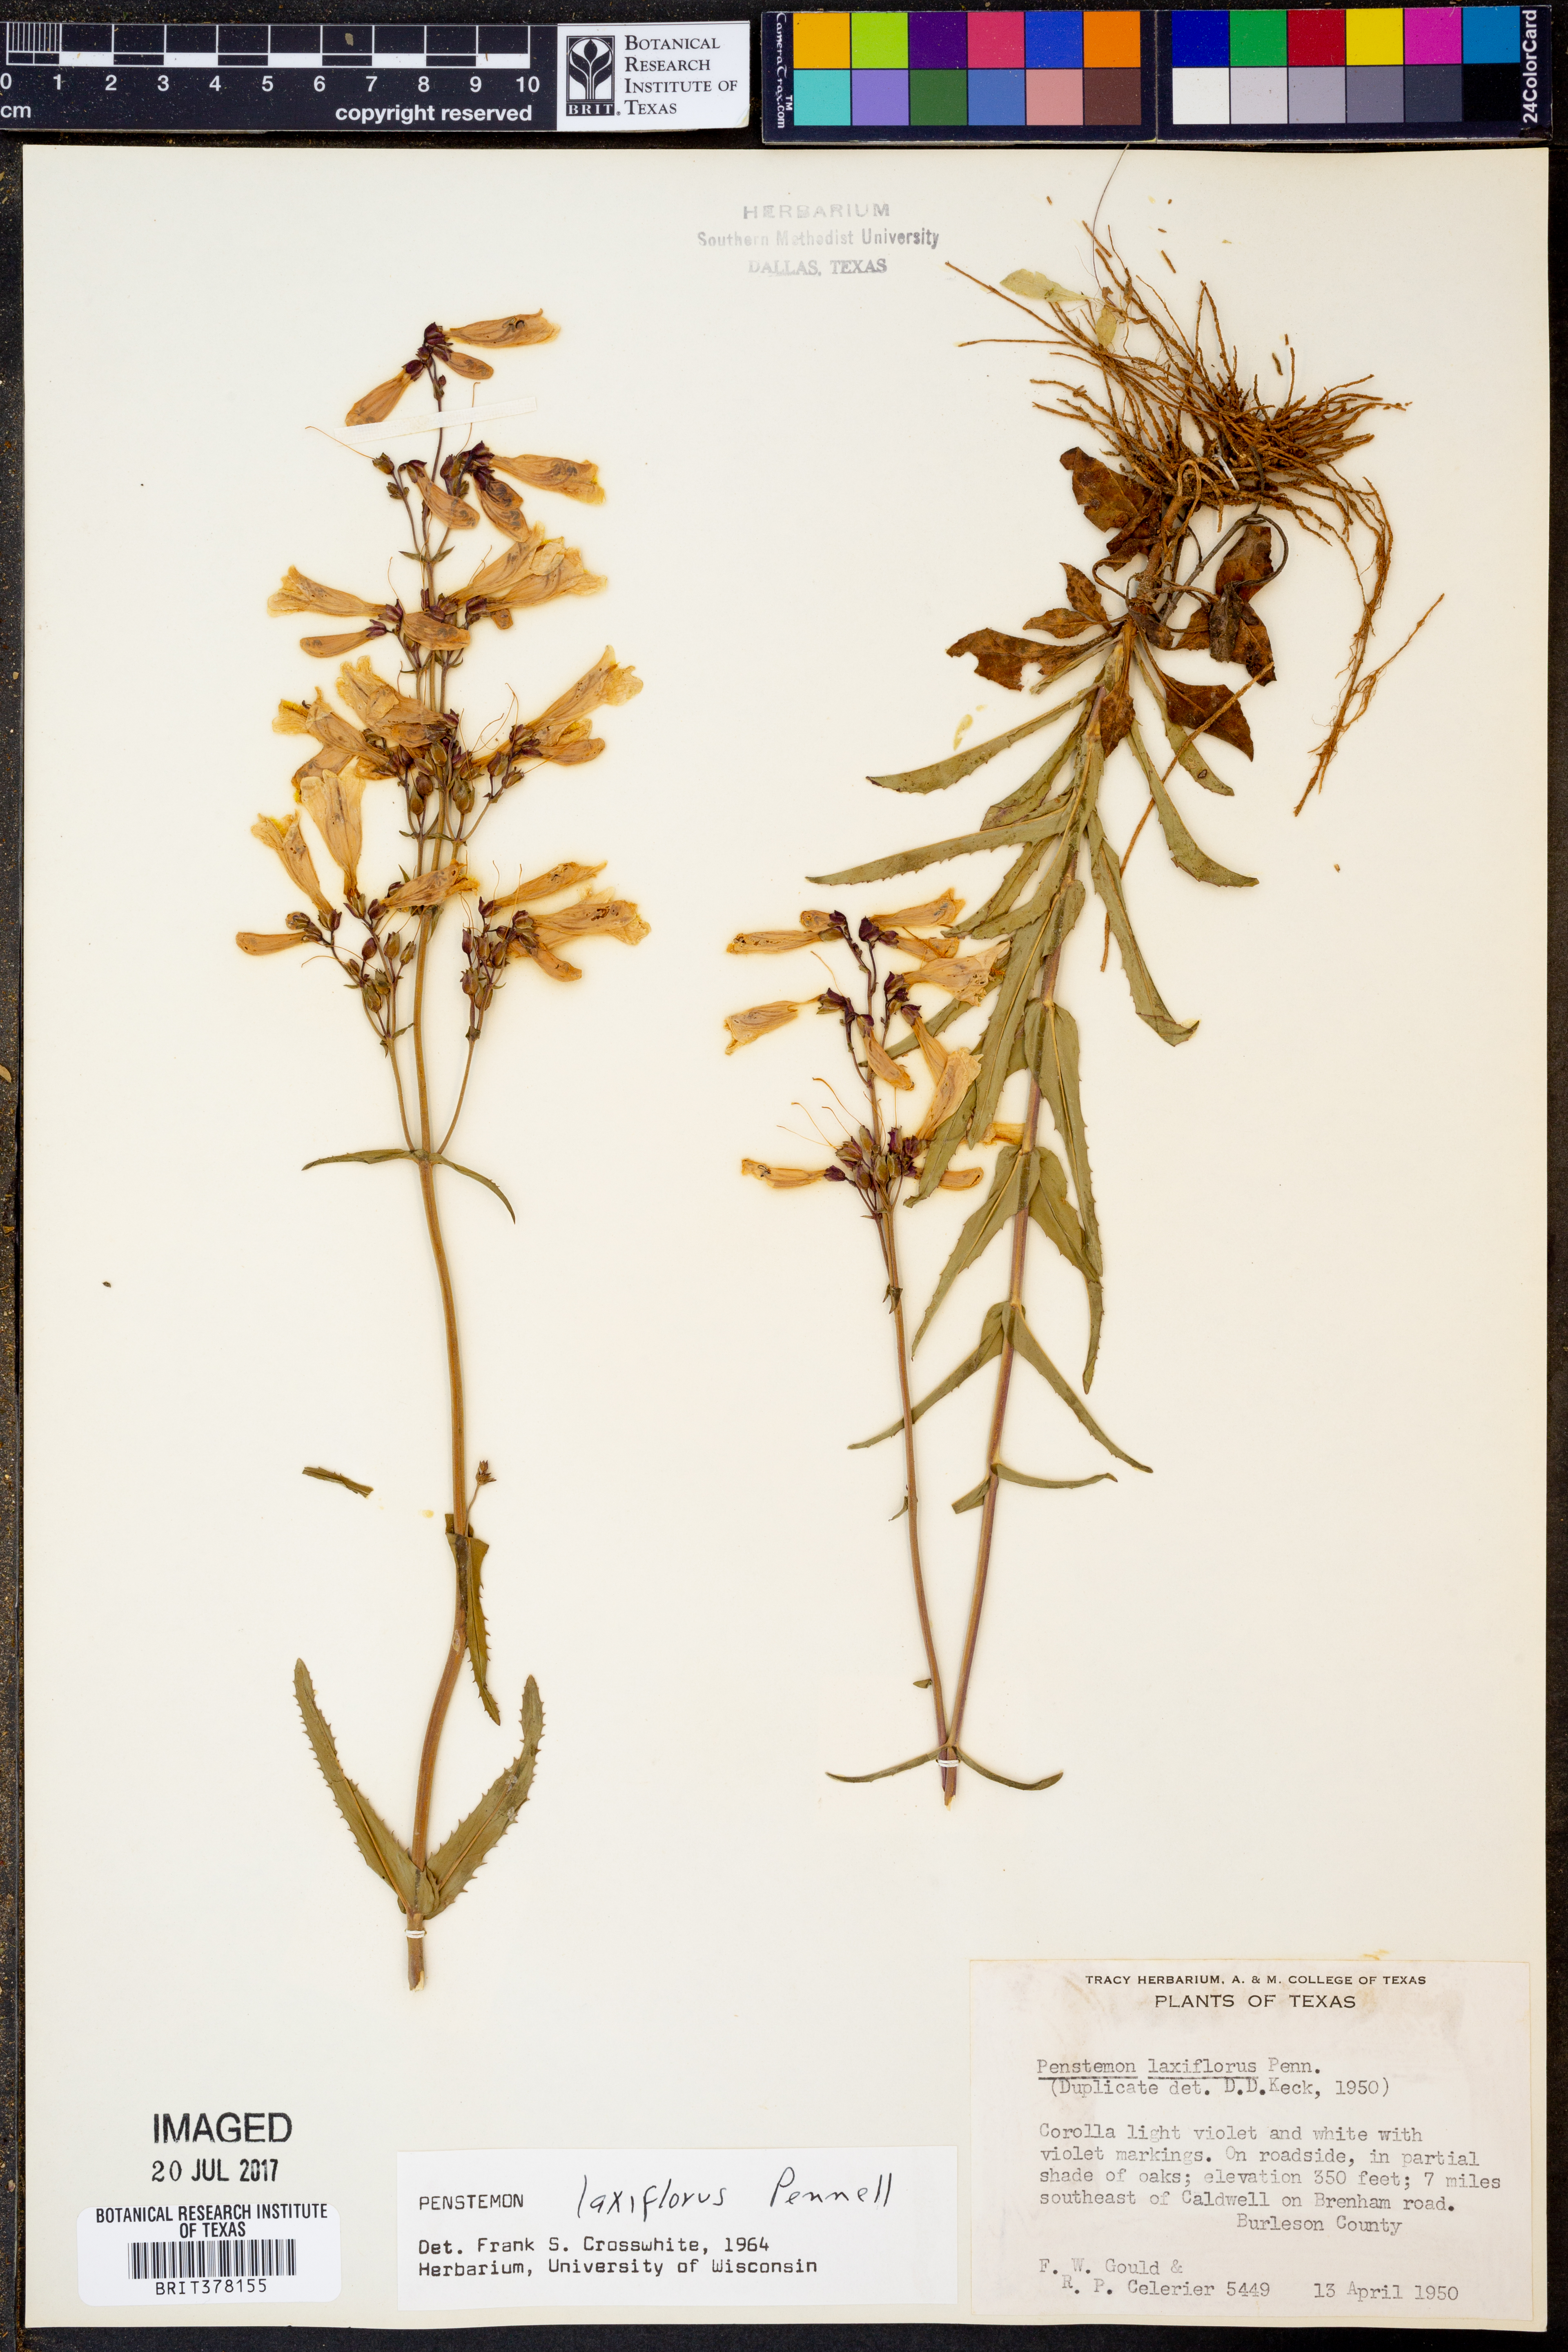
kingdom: Plantae
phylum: Tracheophyta
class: Magnoliopsida
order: Lamiales
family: Plantaginaceae
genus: Penstemon
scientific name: Penstemon laxiflorus
